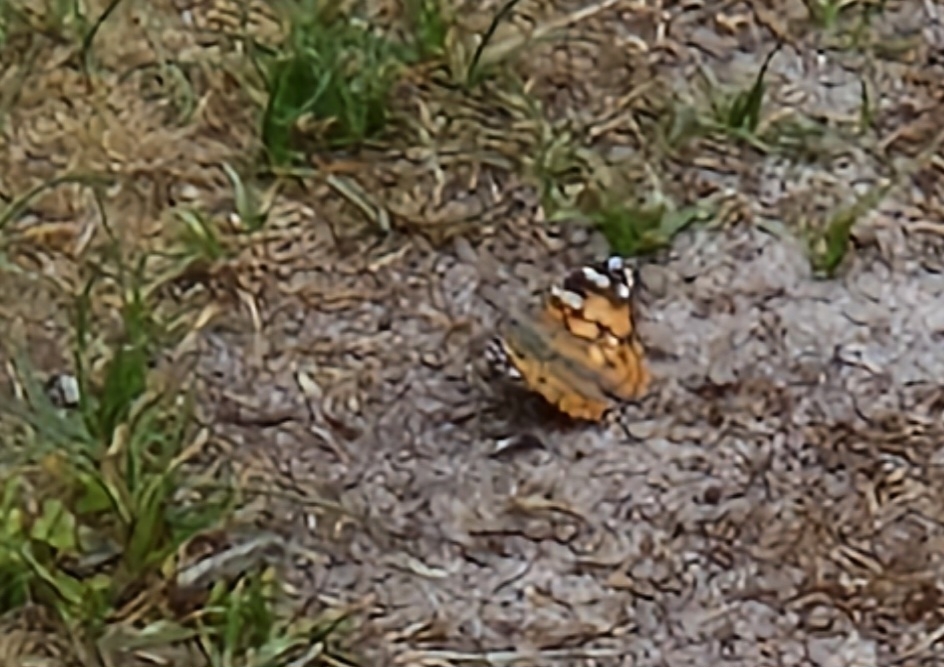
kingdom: Animalia
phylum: Arthropoda
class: Insecta
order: Lepidoptera
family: Nymphalidae
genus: Vanessa
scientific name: Vanessa cardui
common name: Tidselsommerfugl
